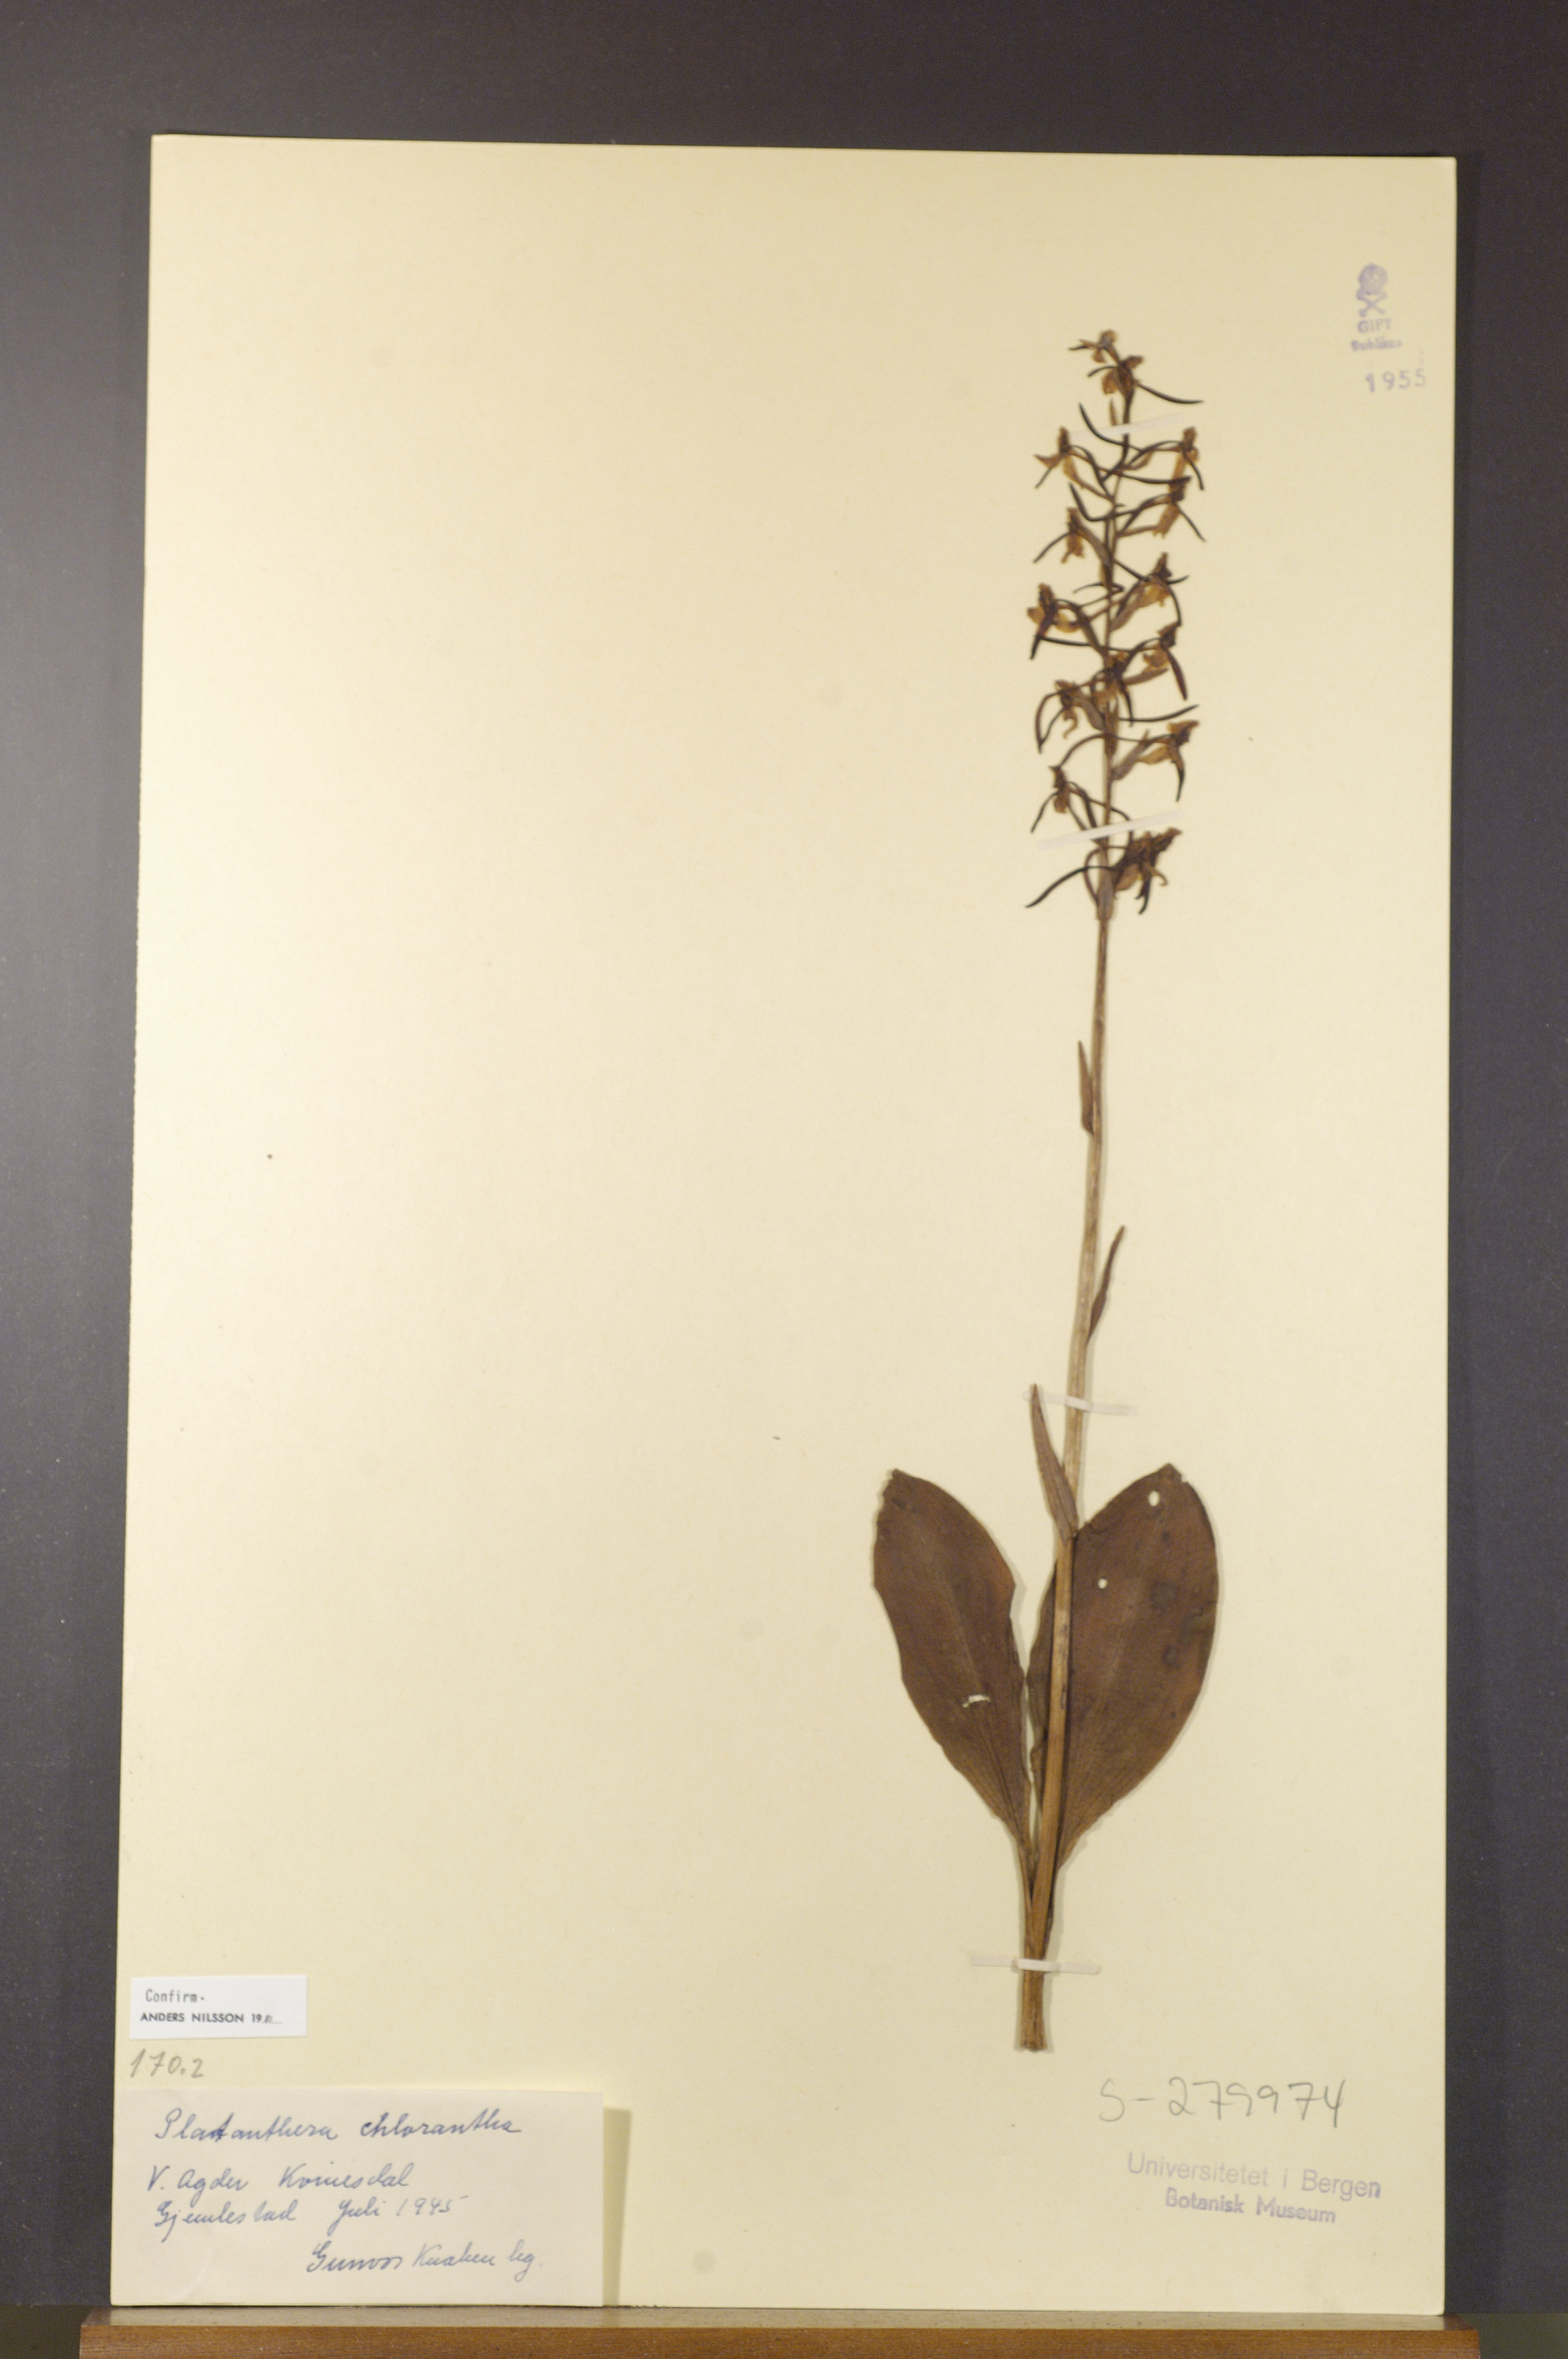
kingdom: Plantae
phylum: Tracheophyta
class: Liliopsida
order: Asparagales
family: Orchidaceae
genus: Platanthera
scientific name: Platanthera chlorantha
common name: Greater butterfly-orchid
